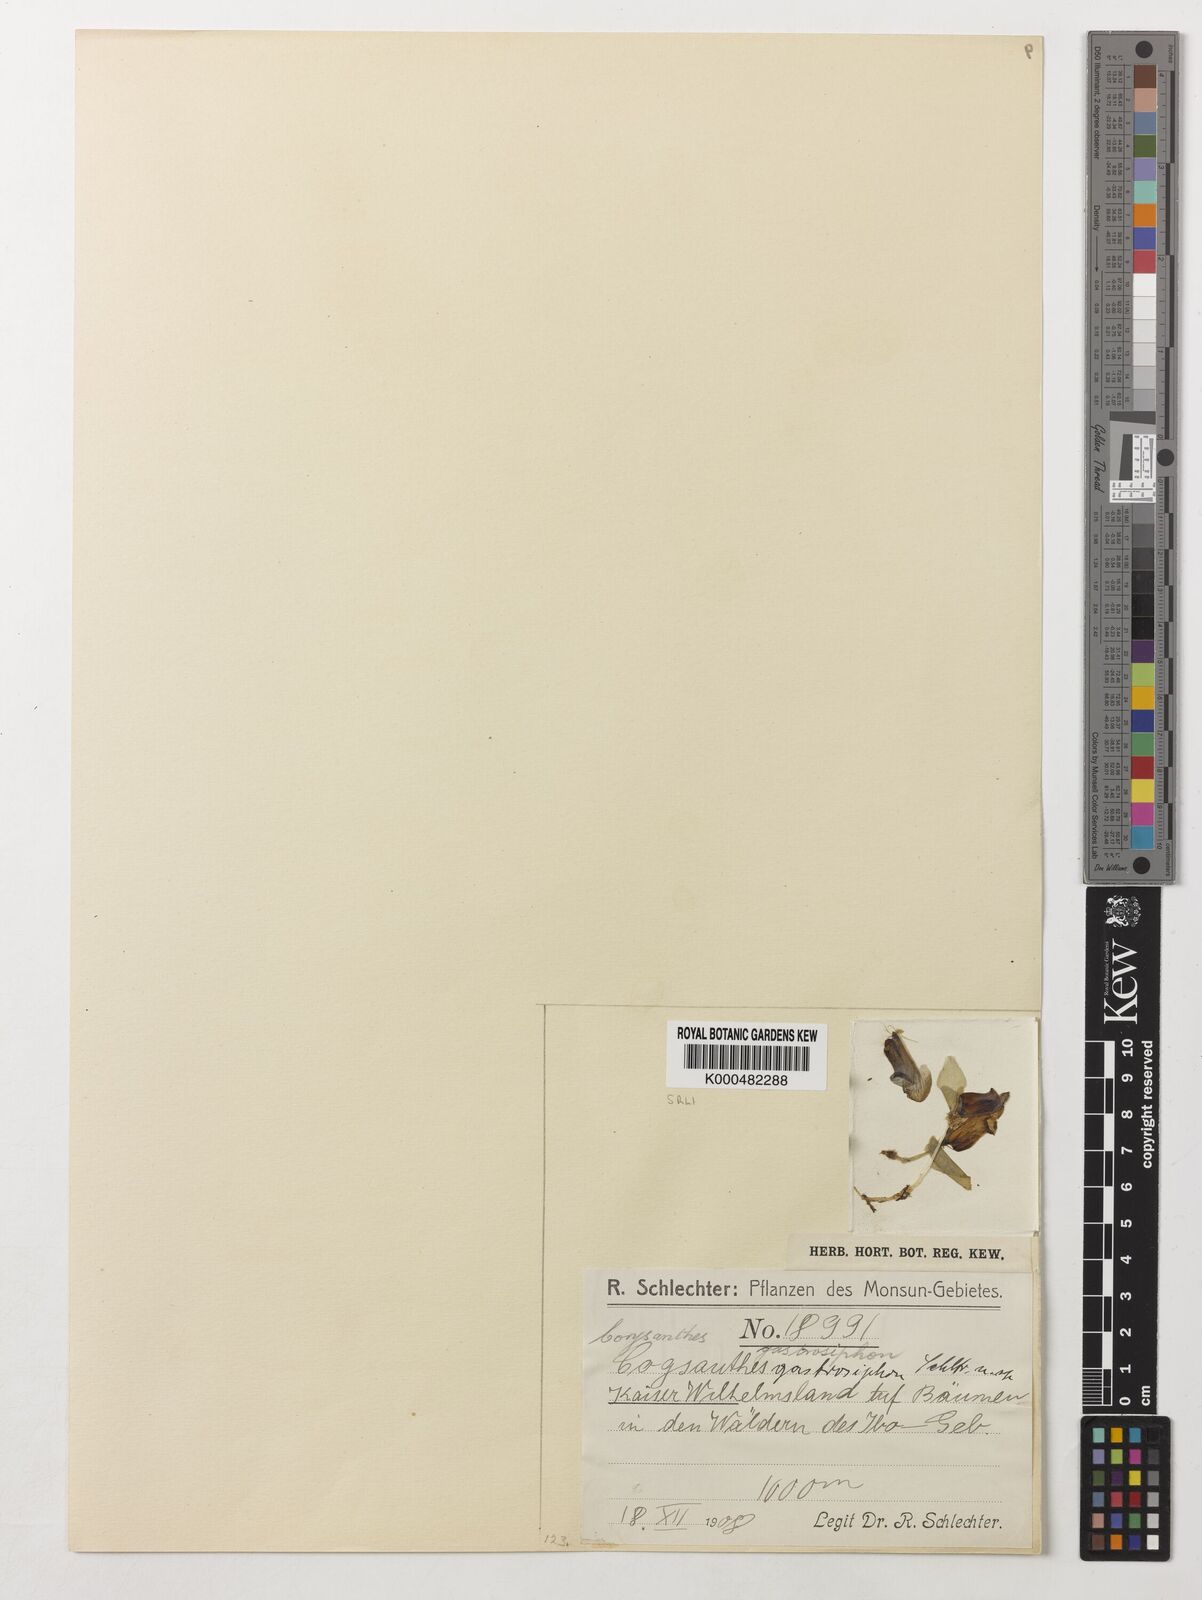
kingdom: Plantae
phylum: Tracheophyta
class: Liliopsida
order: Asparagales
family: Orchidaceae
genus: Corybas
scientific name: Corybas gastrosiphon
